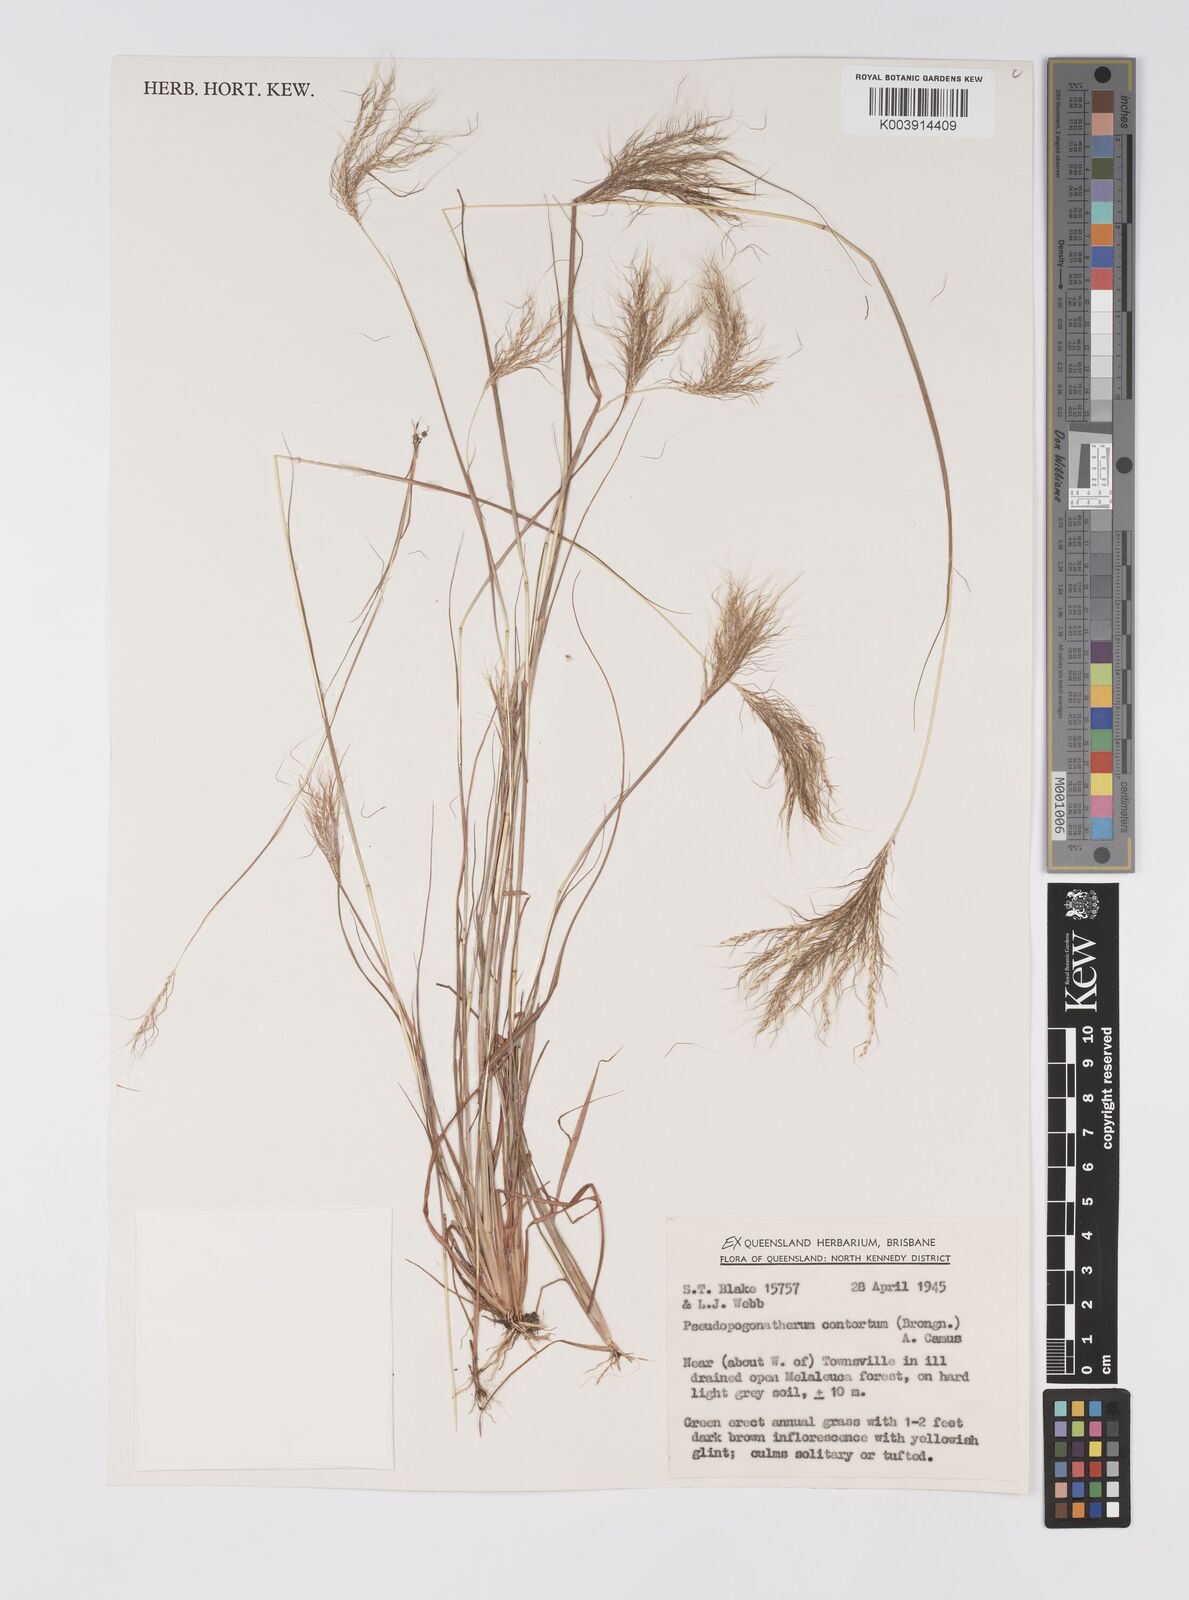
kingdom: Plantae
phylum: Tracheophyta
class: Liliopsida
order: Poales
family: Poaceae
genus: Pseudopogonatherum
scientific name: Pseudopogonatherum contortum
